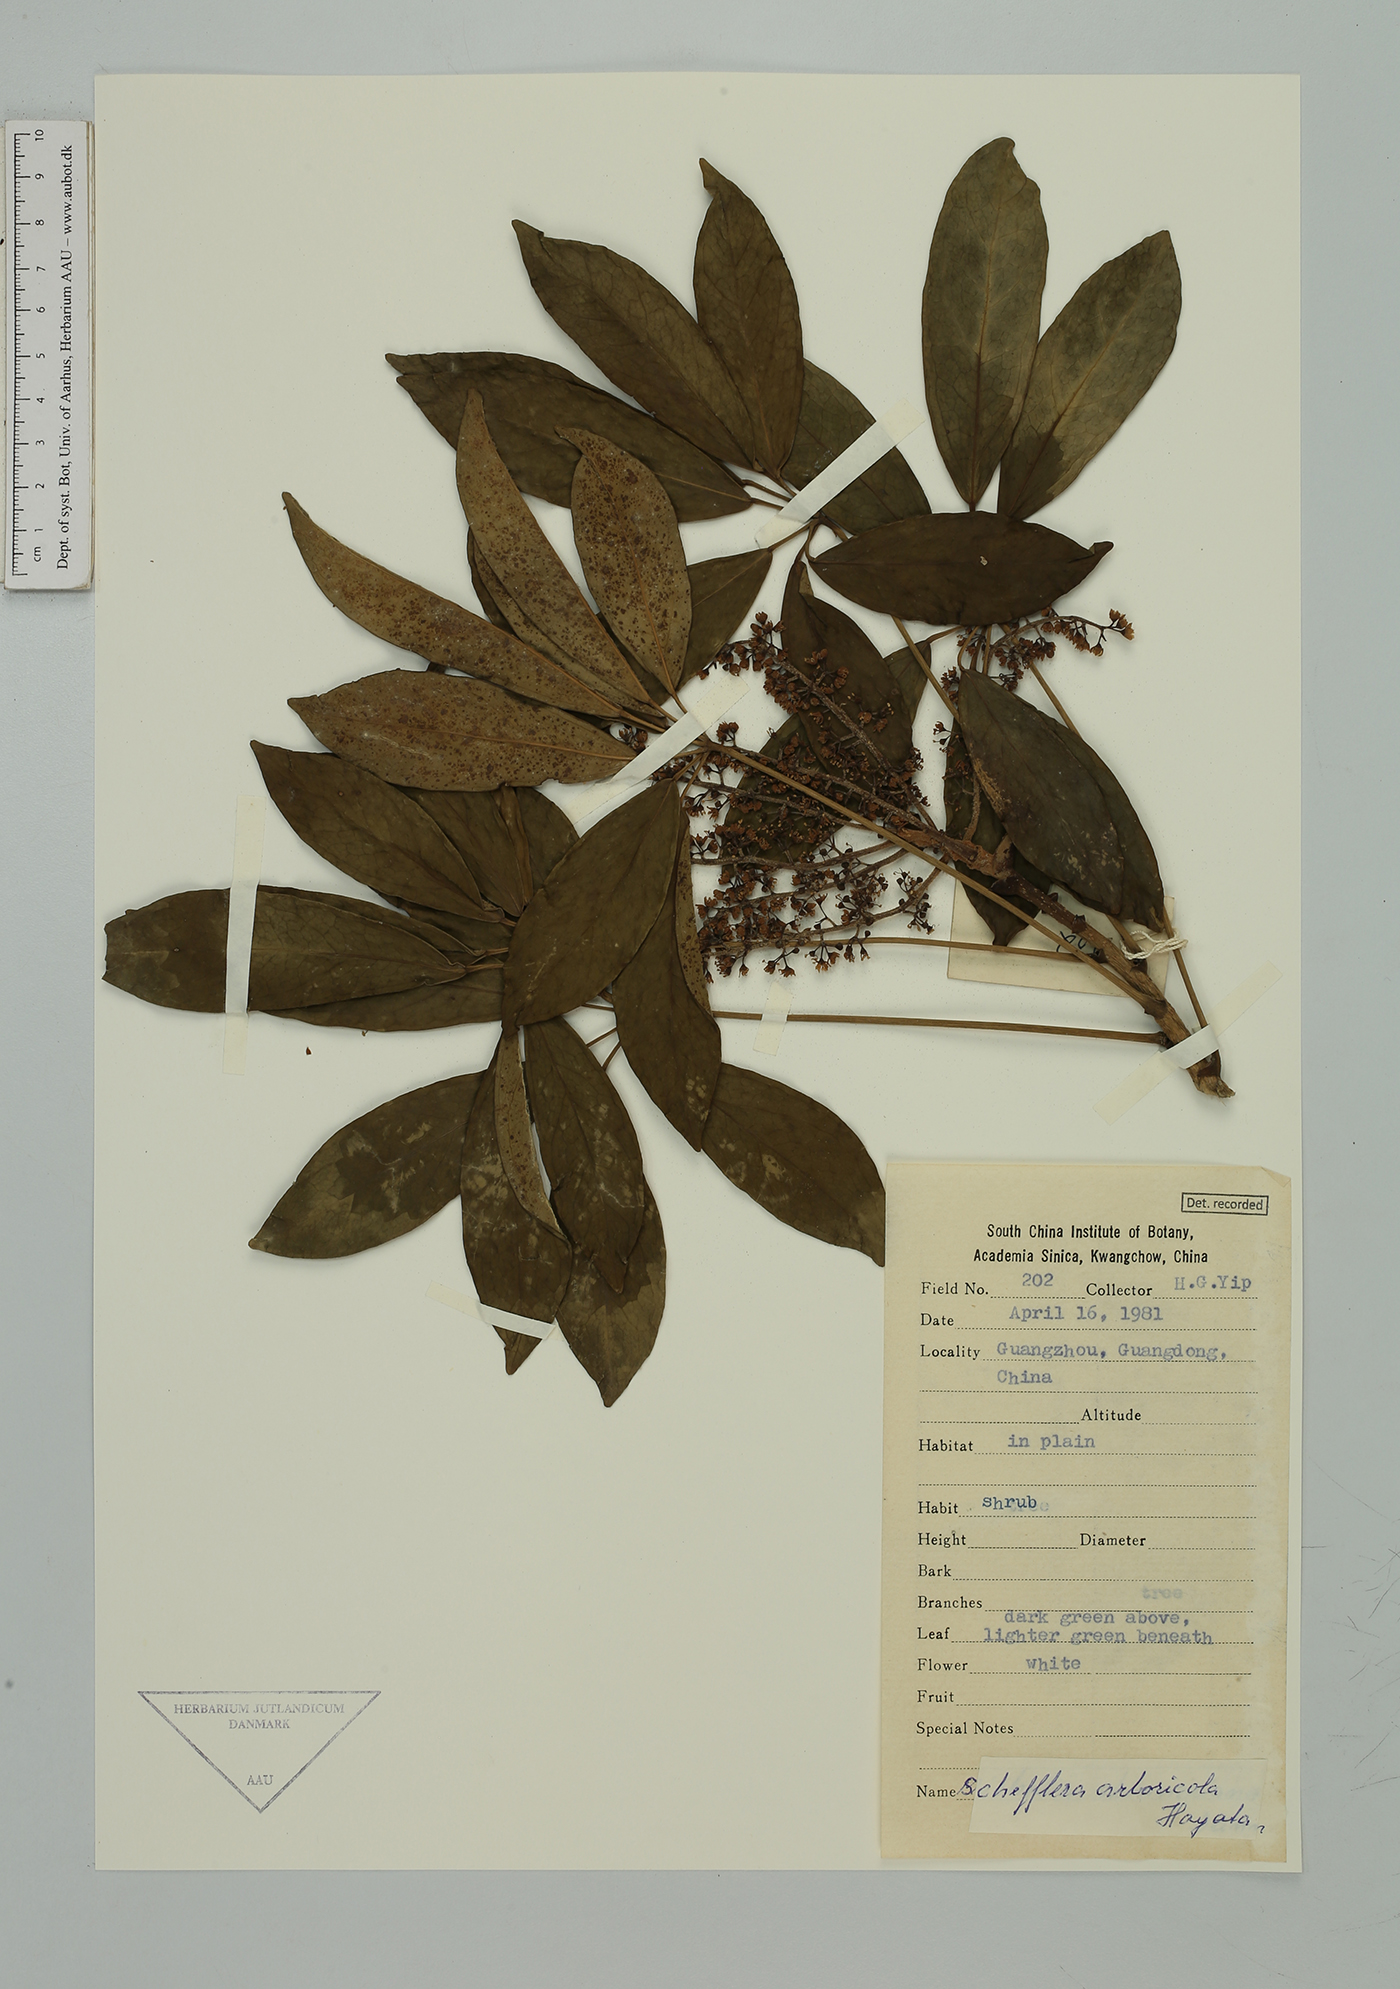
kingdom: Plantae
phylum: Tracheophyta
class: Magnoliopsida
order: Apiales
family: Araliaceae
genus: Heptapleurum
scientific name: Heptapleurum arboricola
